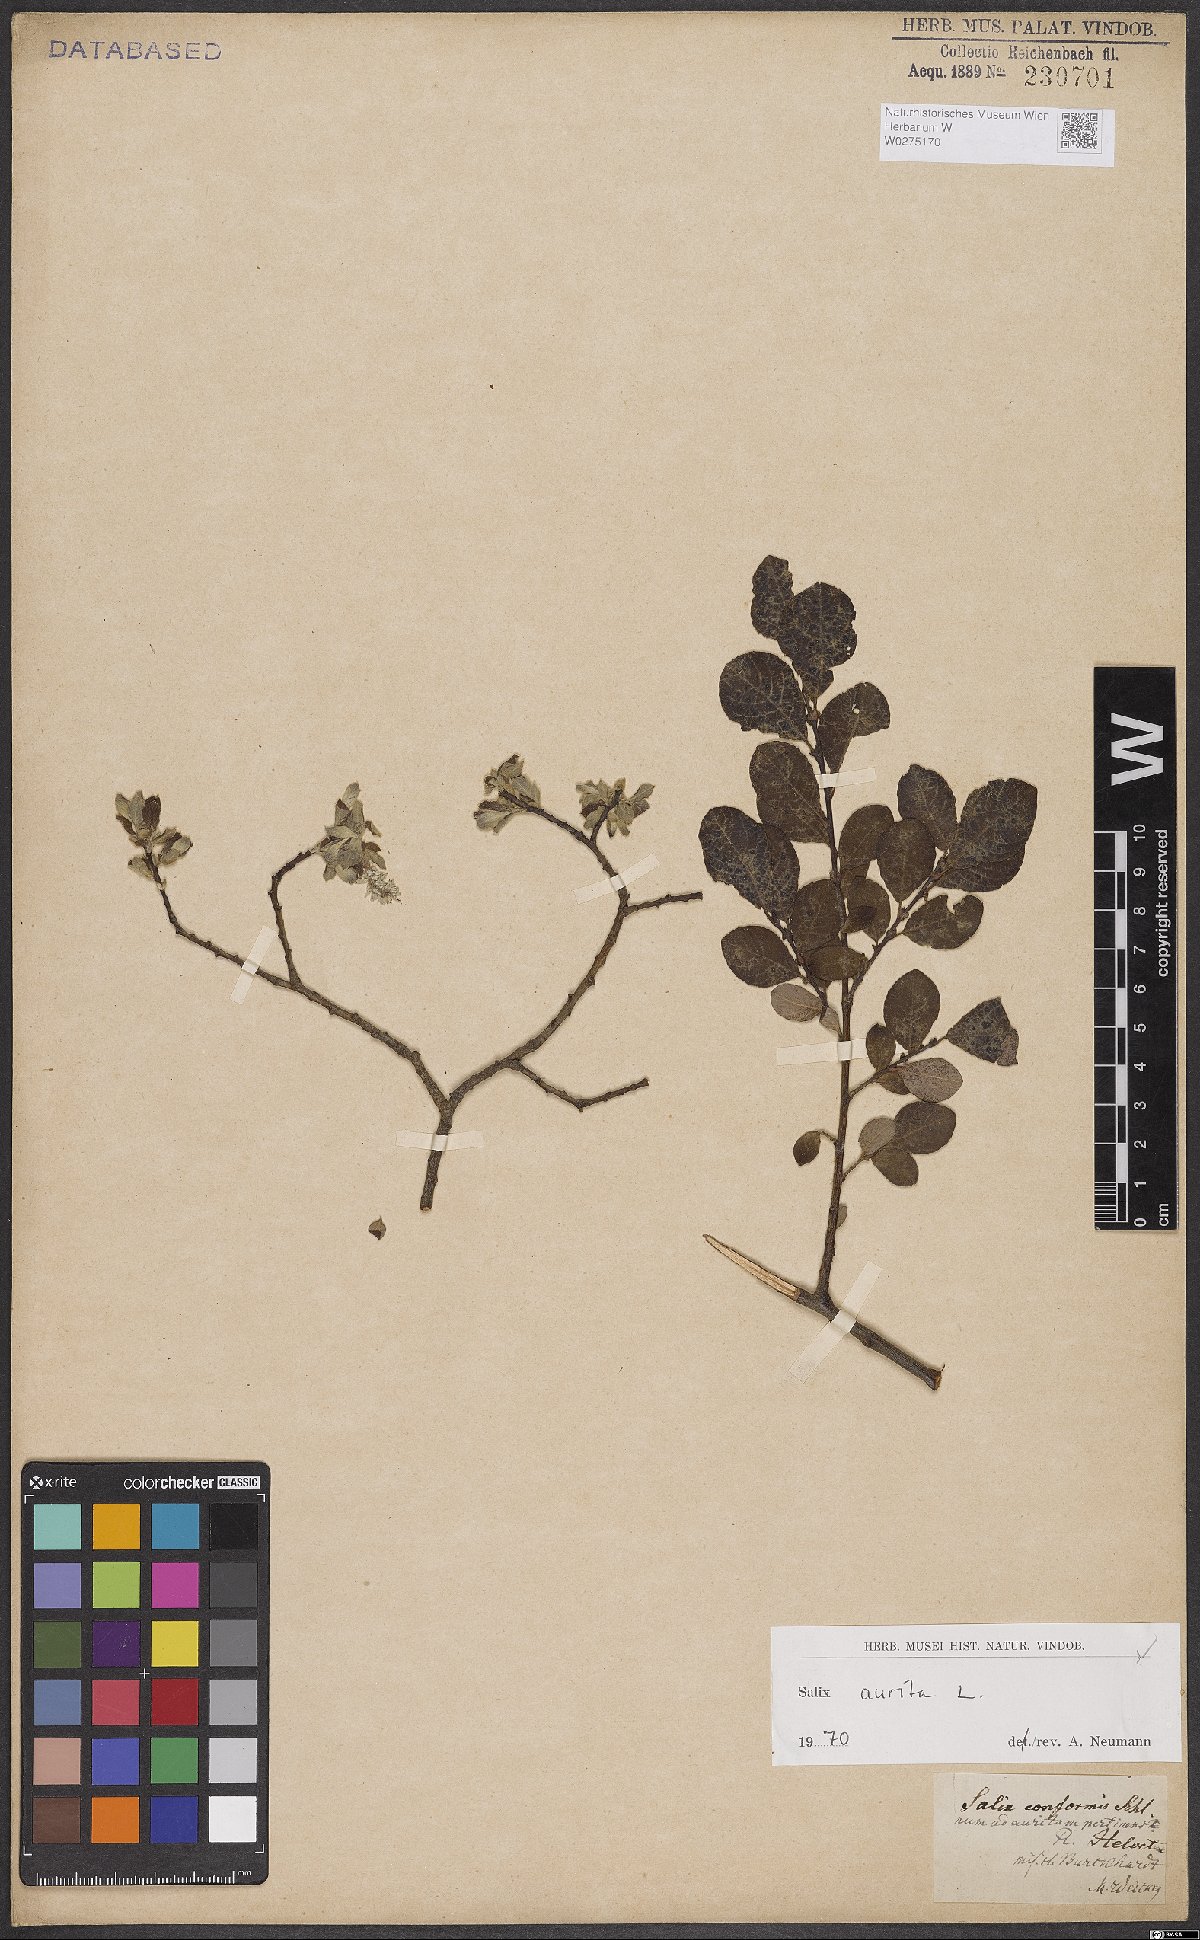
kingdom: Plantae
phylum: Tracheophyta
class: Magnoliopsida
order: Malpighiales
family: Salicaceae
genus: Salix
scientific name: Salix aurita
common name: Eared willow
